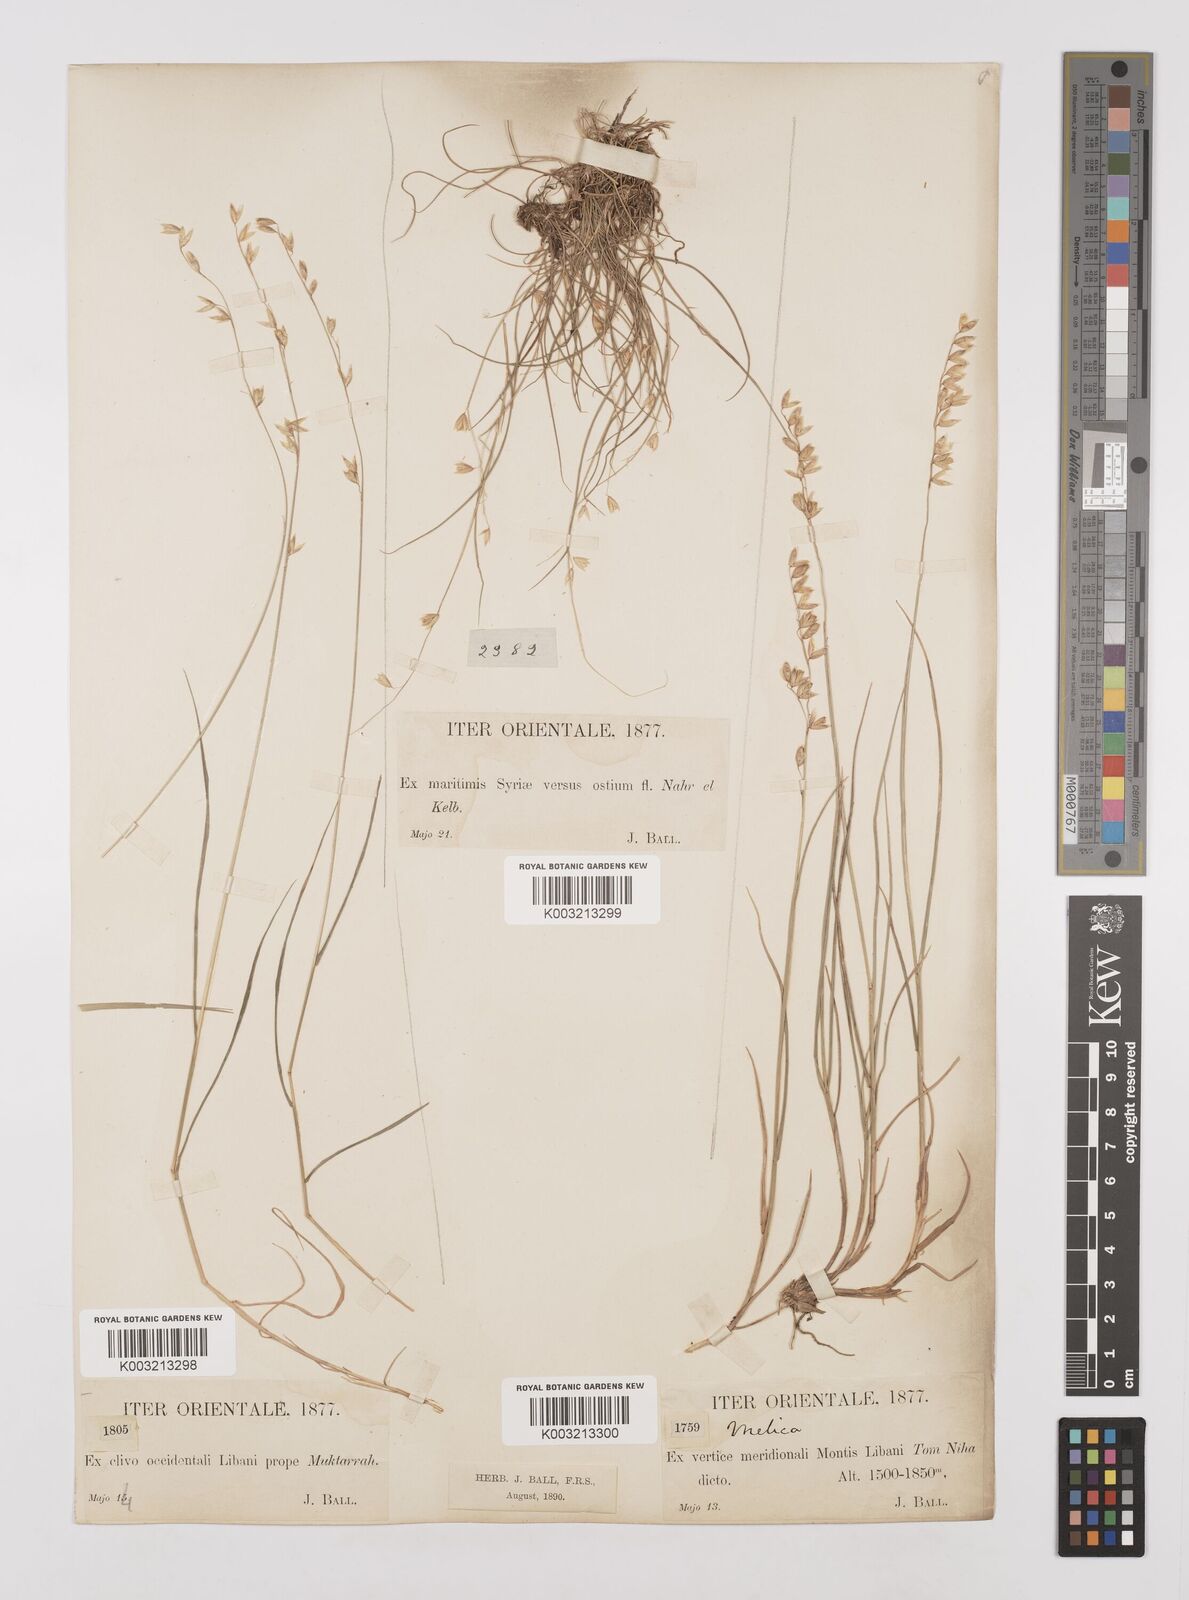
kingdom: Plantae
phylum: Tracheophyta
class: Liliopsida
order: Poales
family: Poaceae
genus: Melica
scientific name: Melica minuta
